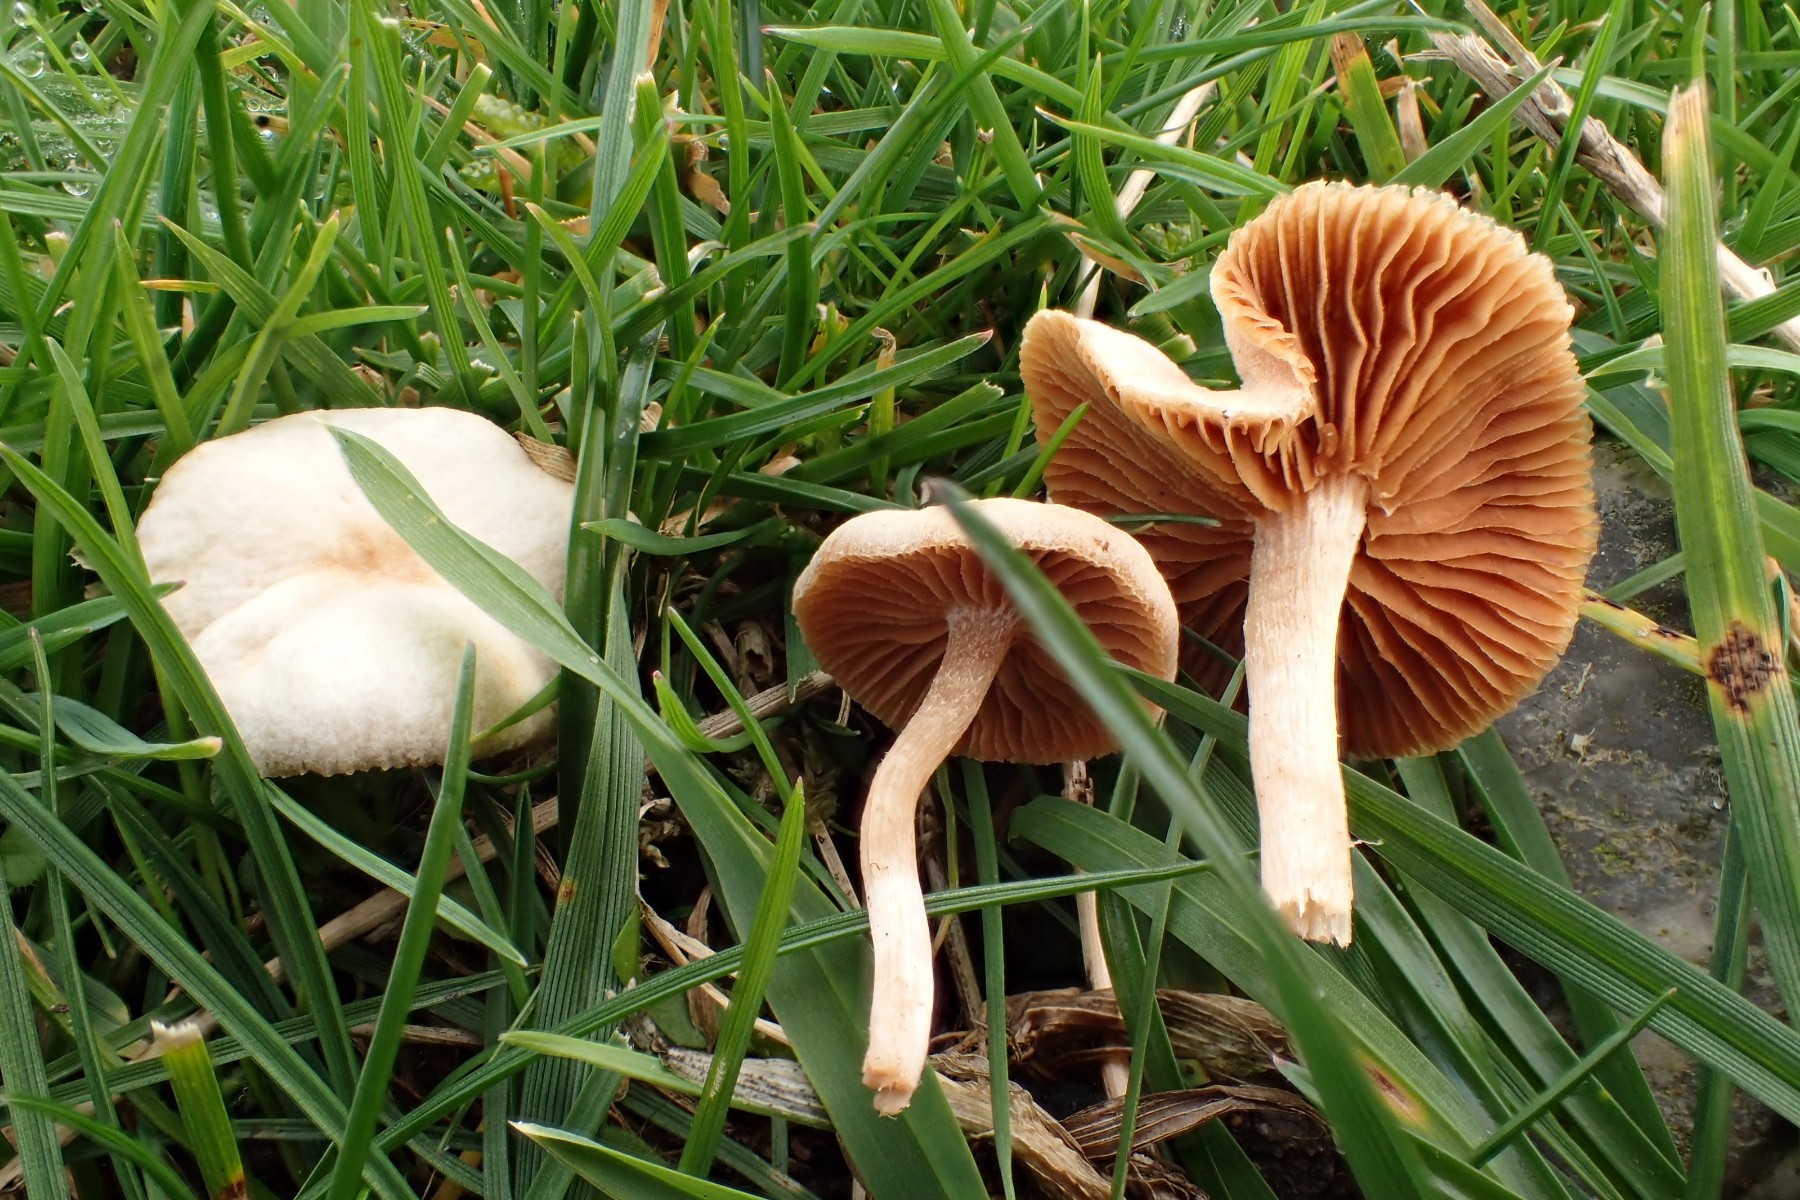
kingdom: Fungi
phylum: Basidiomycota
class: Agaricomycetes
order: Agaricales
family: Tubariaceae
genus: Tubaria
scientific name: Tubaria
